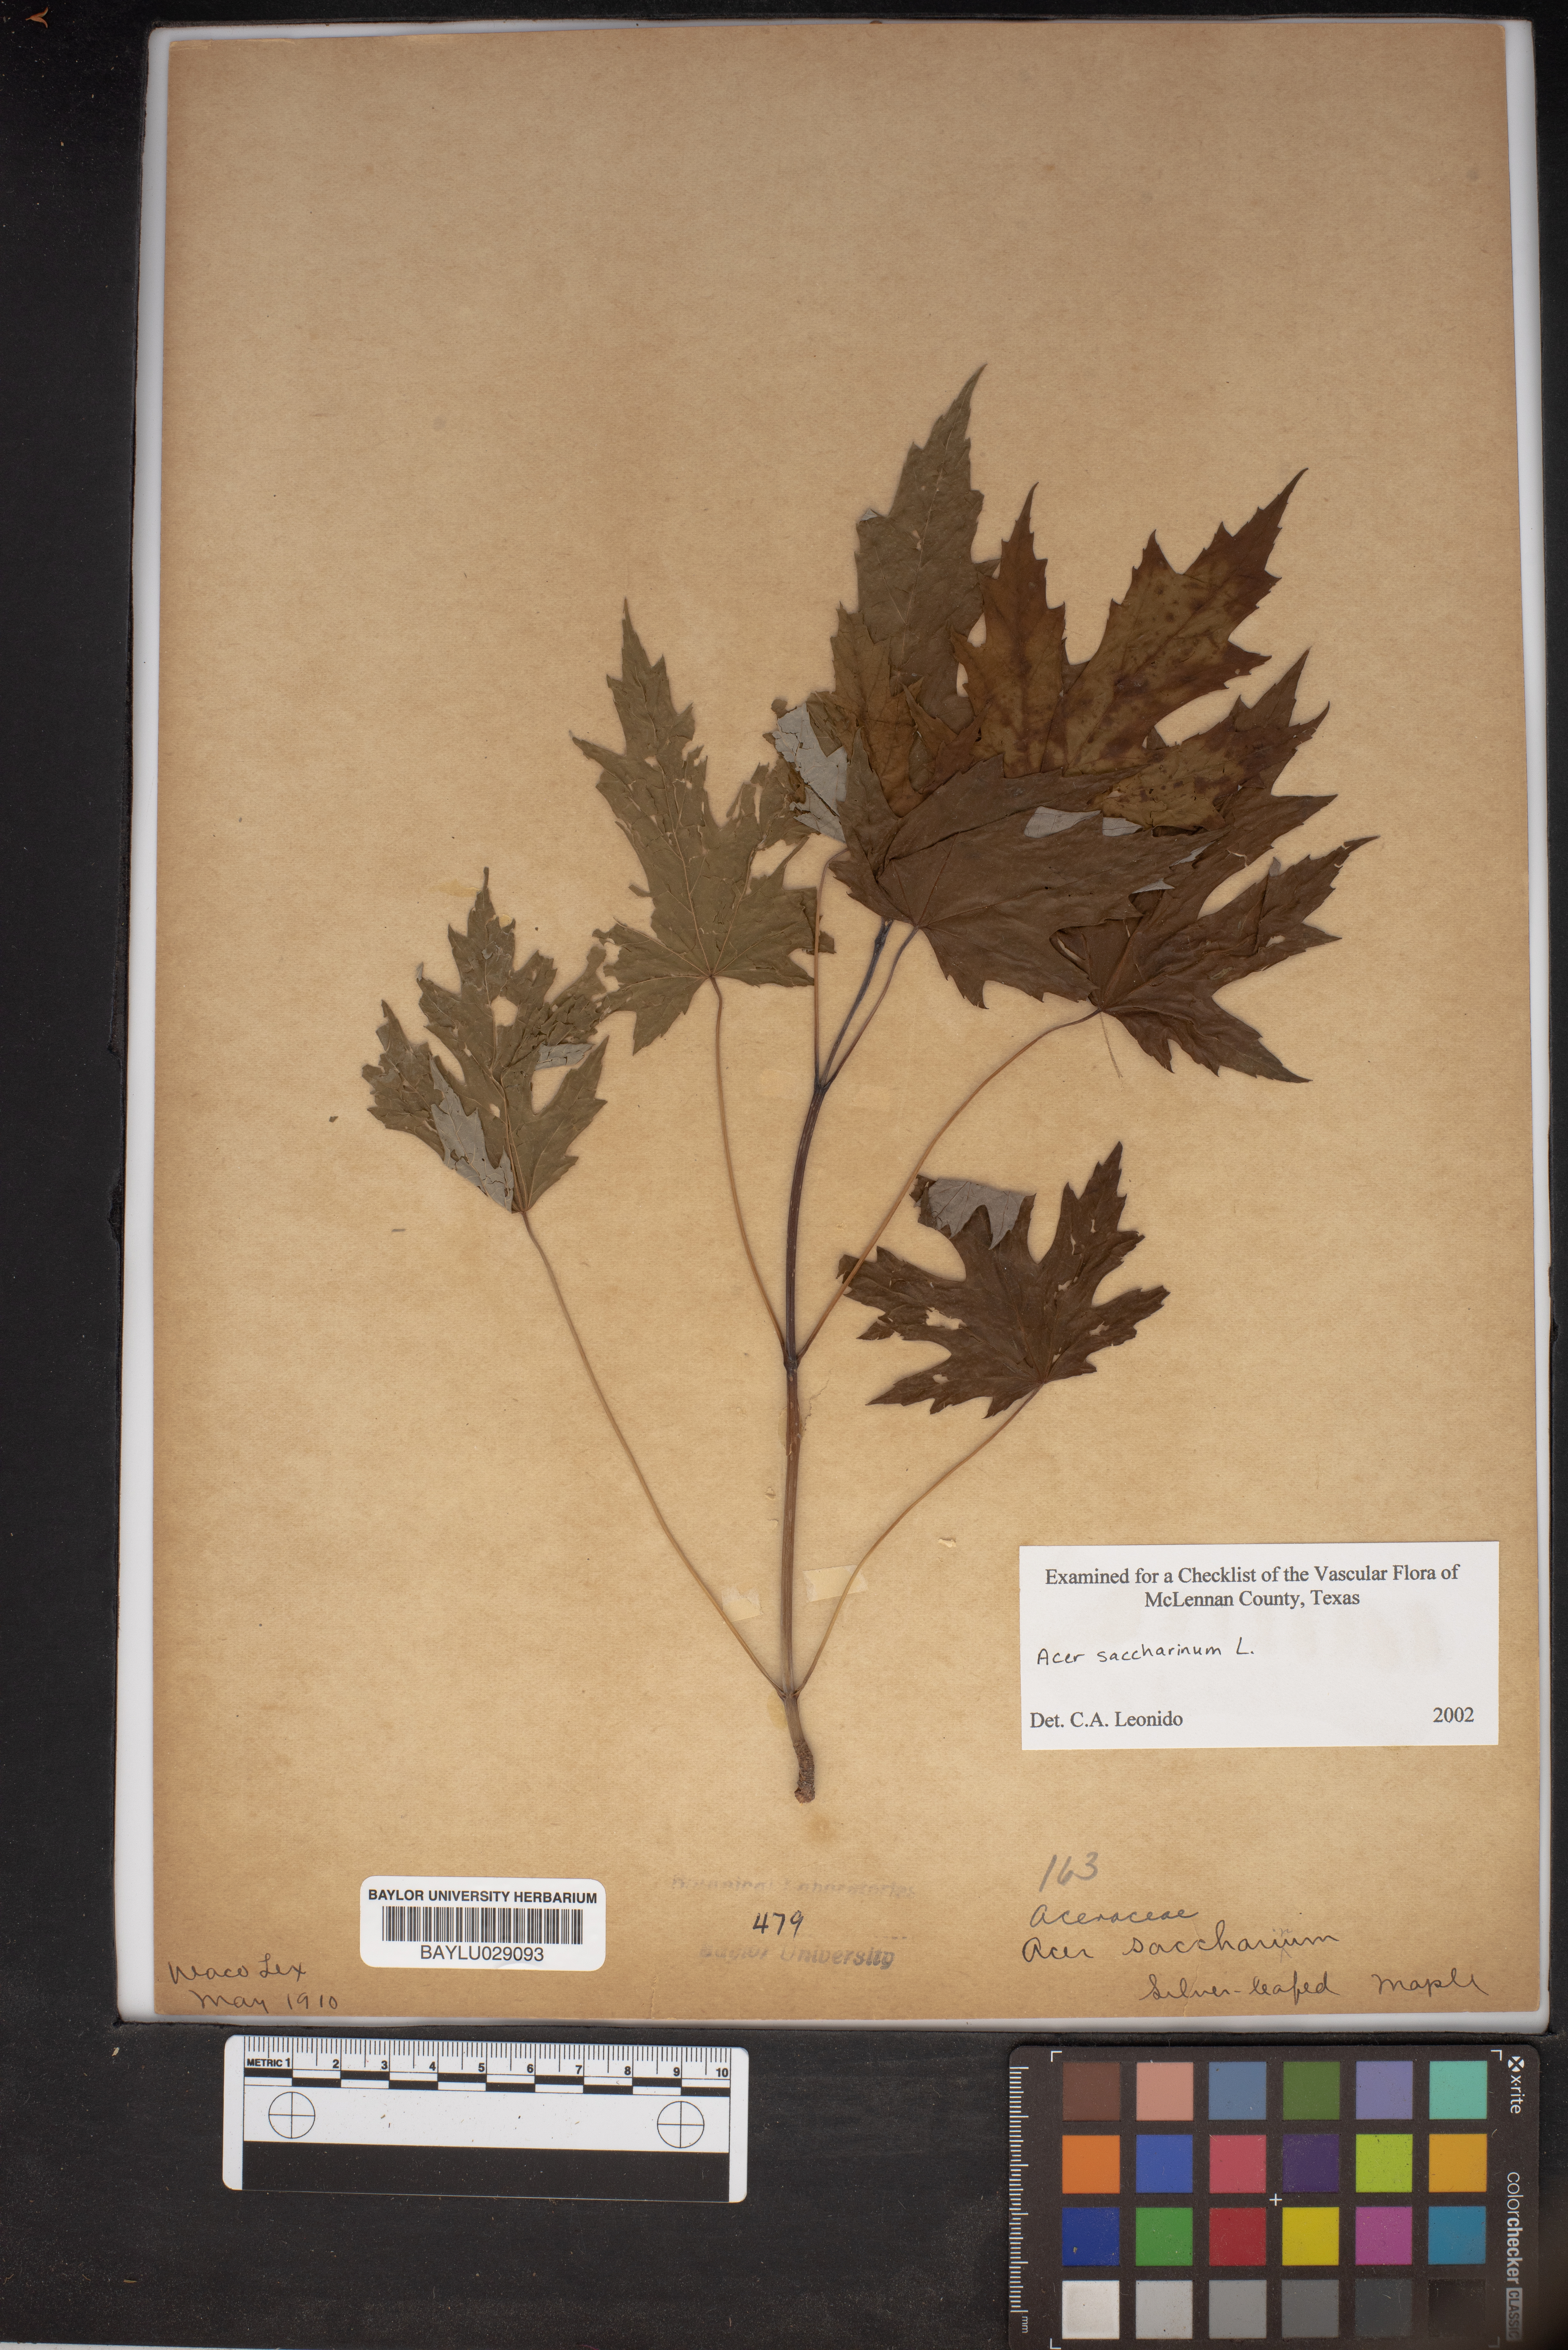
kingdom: Plantae
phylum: Tracheophyta
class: Magnoliopsida
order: Sapindales
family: Sapindaceae
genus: Acer
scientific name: Acer saccharinum
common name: Silver maple
